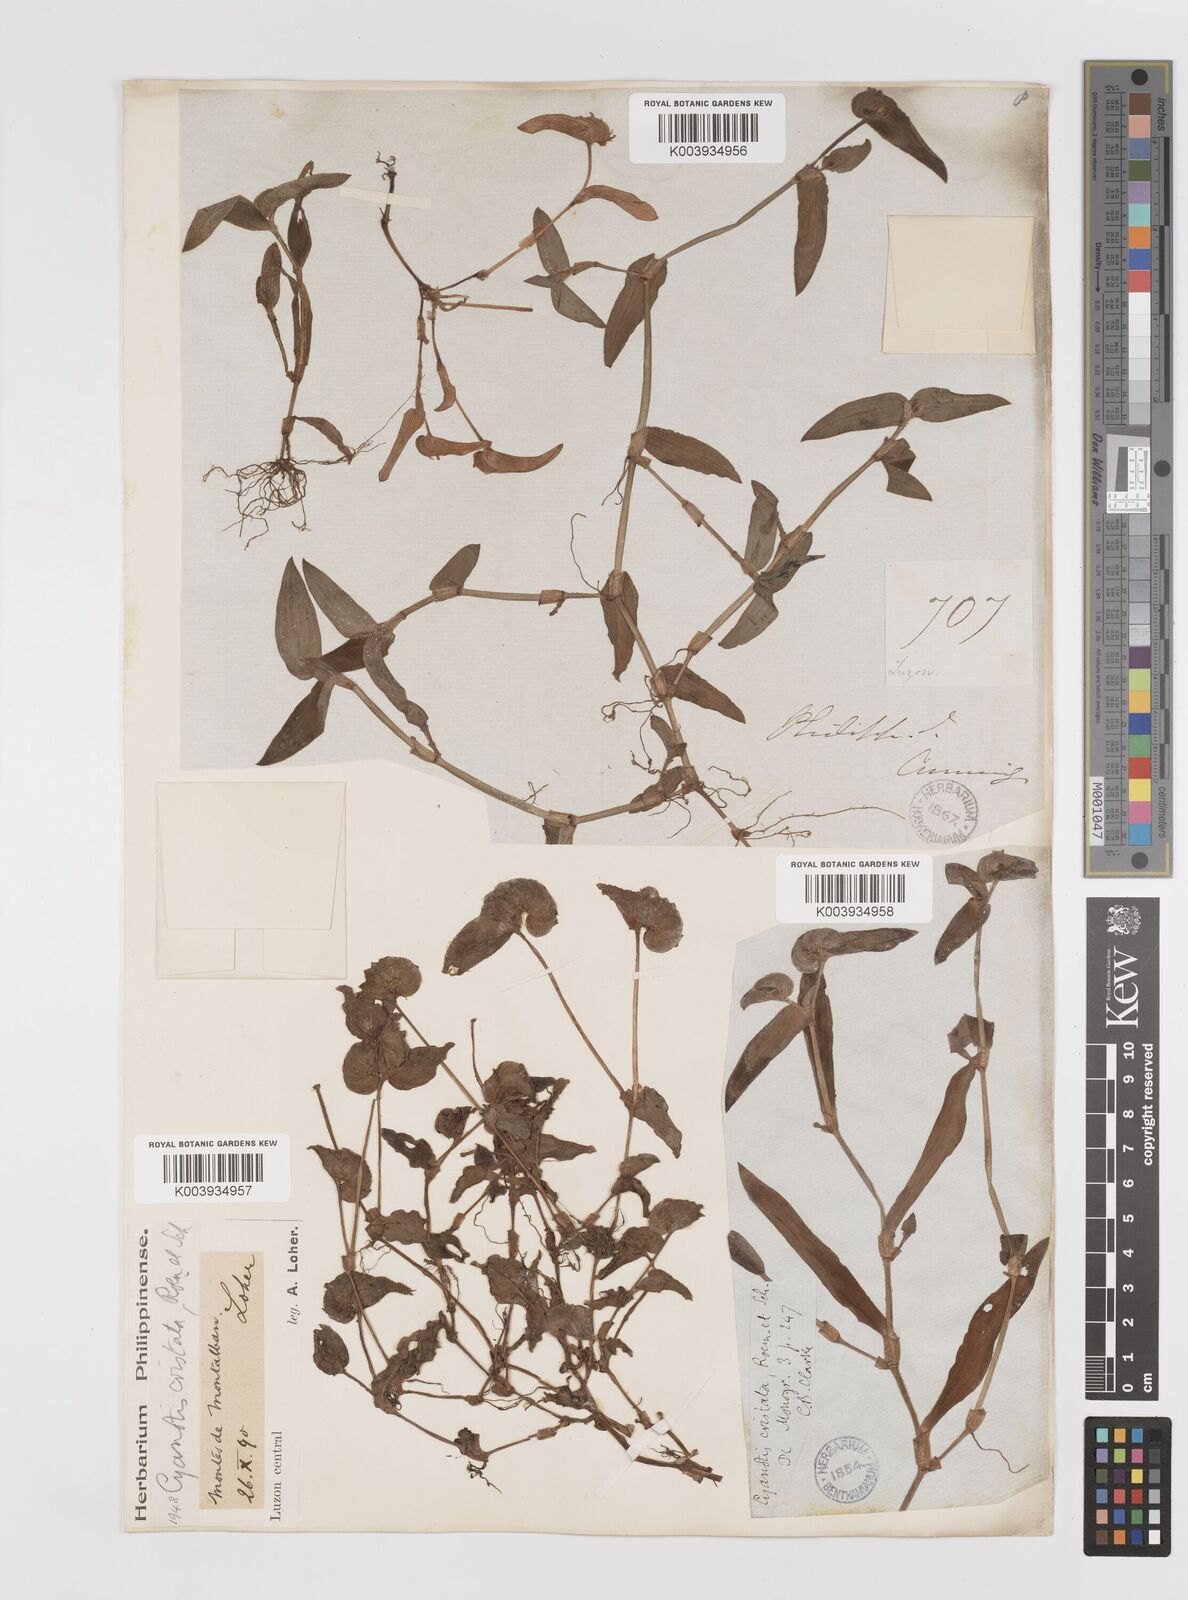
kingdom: Plantae
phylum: Tracheophyta
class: Liliopsida
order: Commelinales
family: Commelinaceae
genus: Cyanotis
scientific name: Cyanotis cristata
